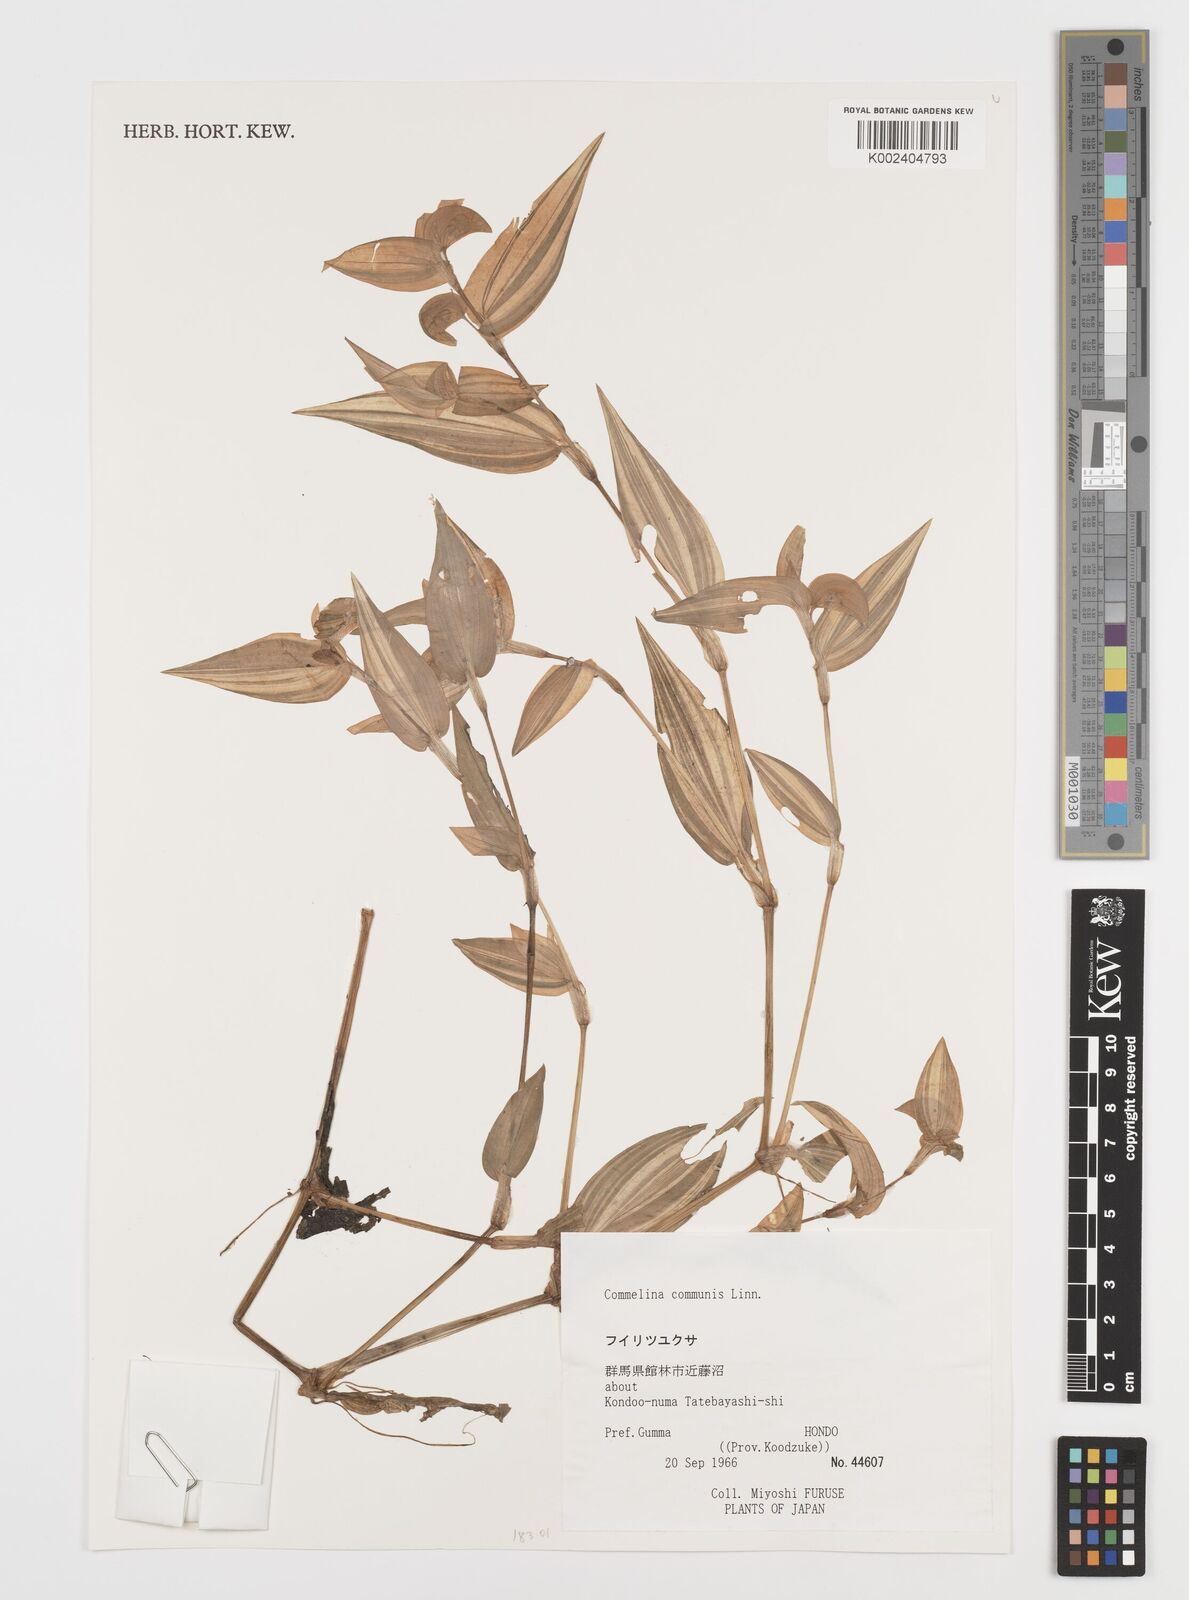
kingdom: Plantae
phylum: Tracheophyta
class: Liliopsida
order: Commelinales
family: Commelinaceae
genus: Commelina
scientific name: Commelina communis
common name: Asiatic dayflower
